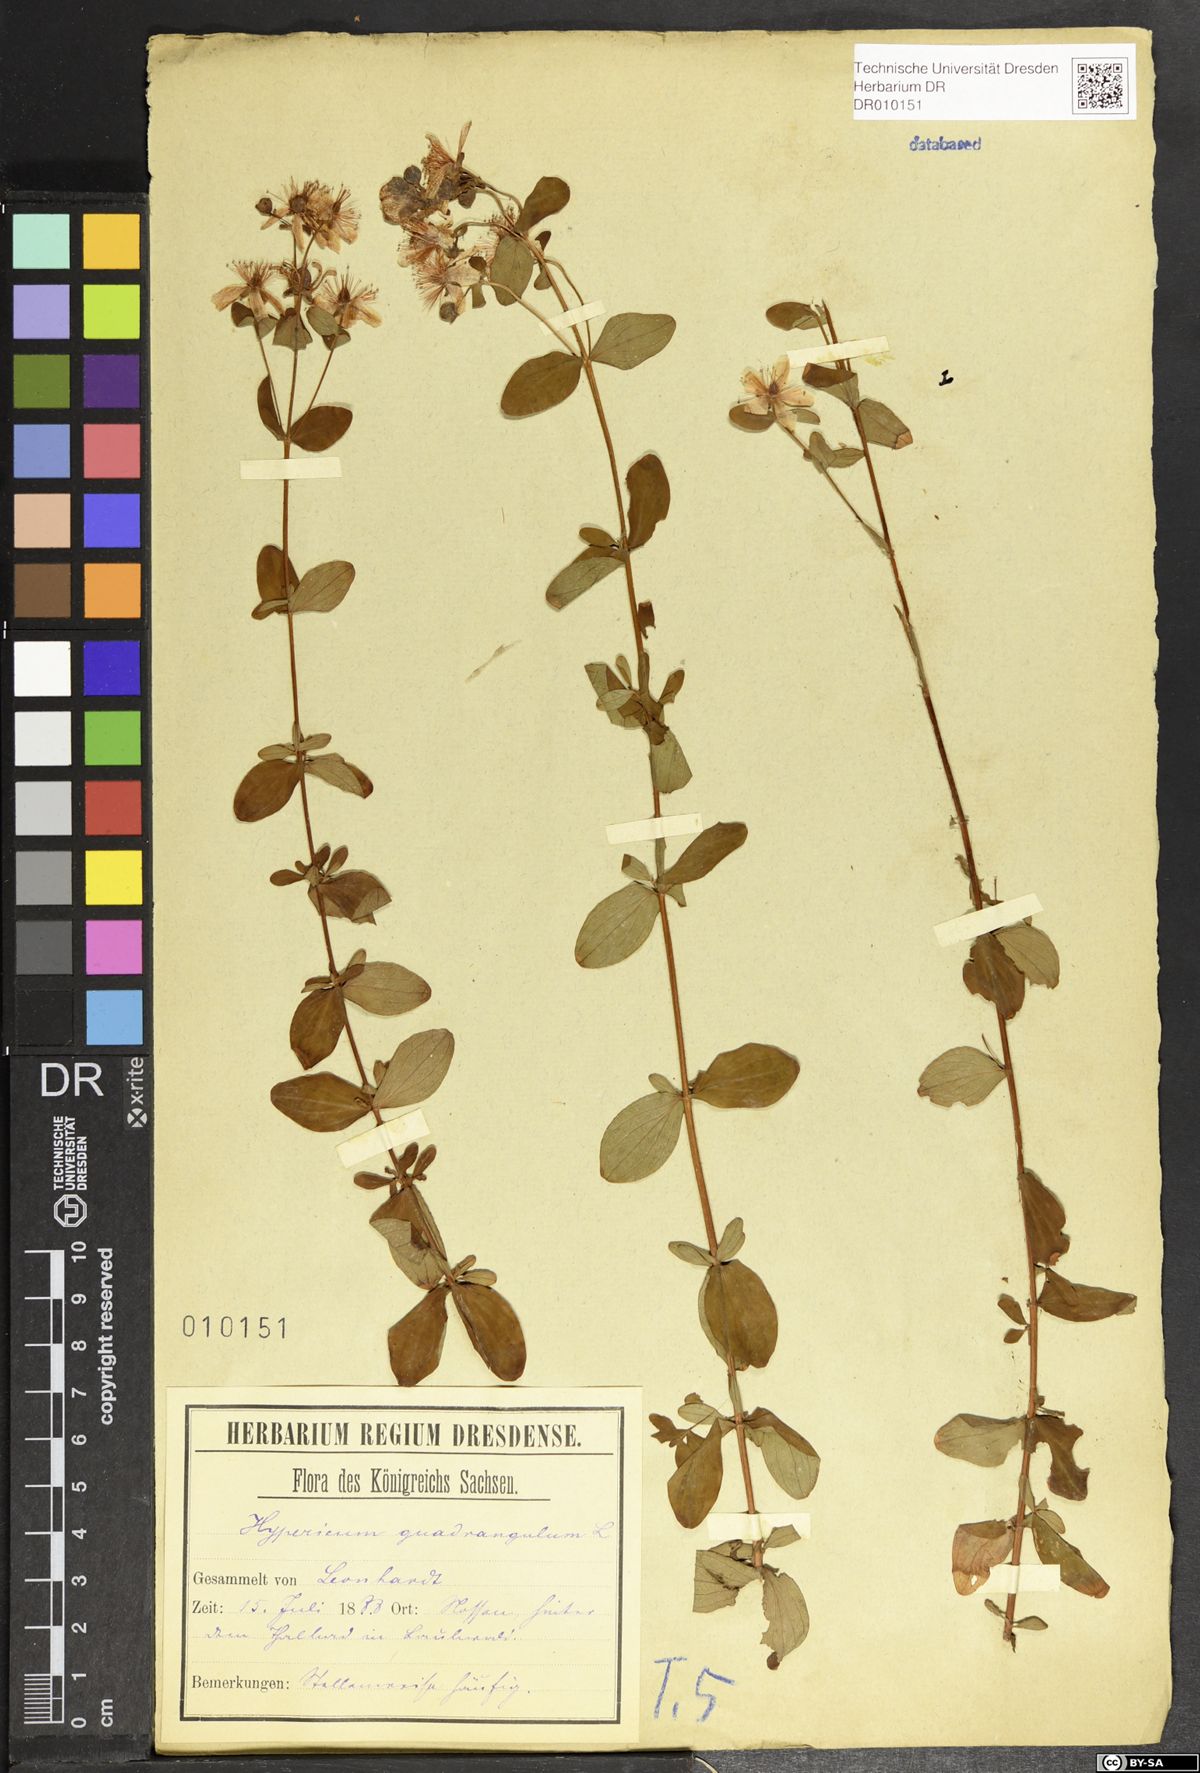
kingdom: Plantae
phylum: Tracheophyta
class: Magnoliopsida
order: Malpighiales
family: Hypericaceae
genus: Hypericum
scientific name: Hypericum maculatum
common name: Imperforate st. john's-wort
